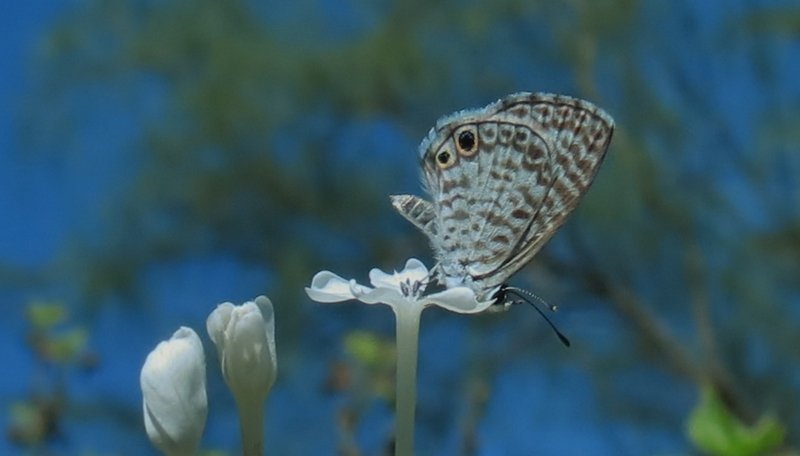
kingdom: Animalia
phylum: Arthropoda
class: Insecta
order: Lepidoptera
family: Lycaenidae
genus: Leptotes
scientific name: Leptotes cassius
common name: Cassius Blue
